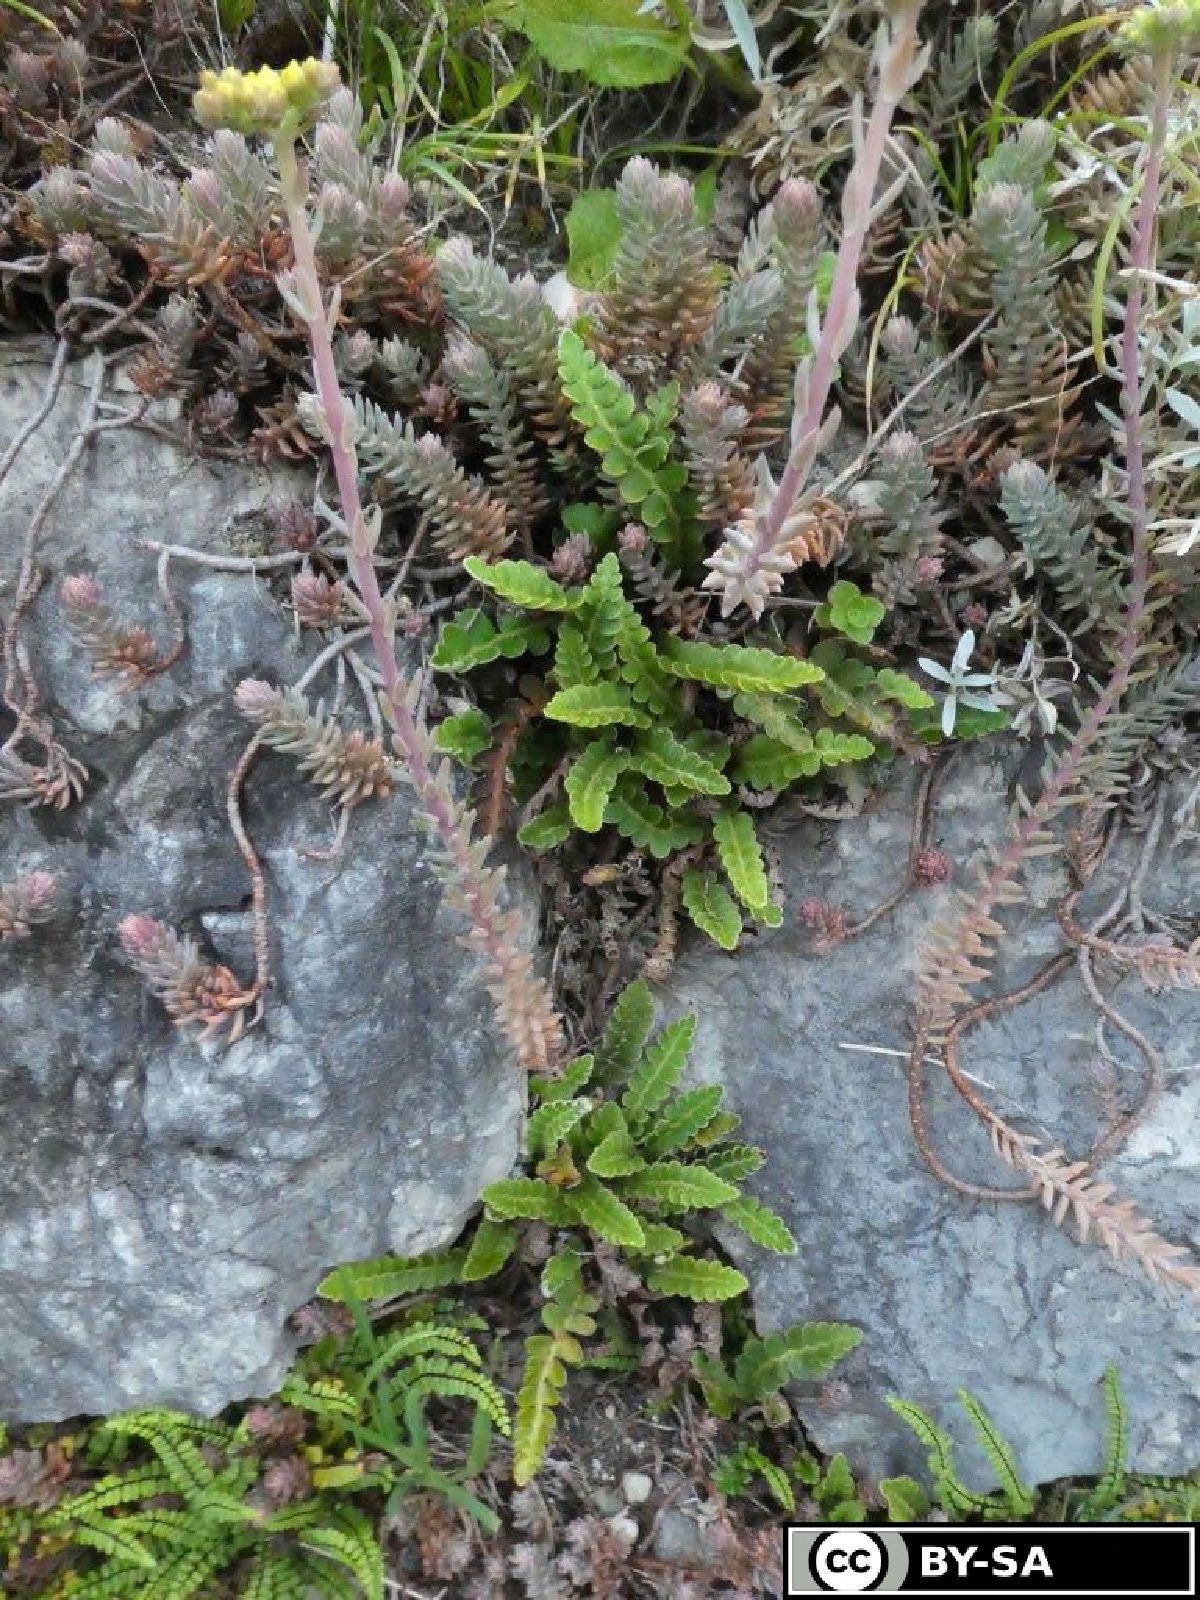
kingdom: Plantae
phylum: Tracheophyta
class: Polypodiopsida
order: Polypodiales
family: Aspleniaceae
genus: Asplenium
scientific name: Asplenium ceterach
